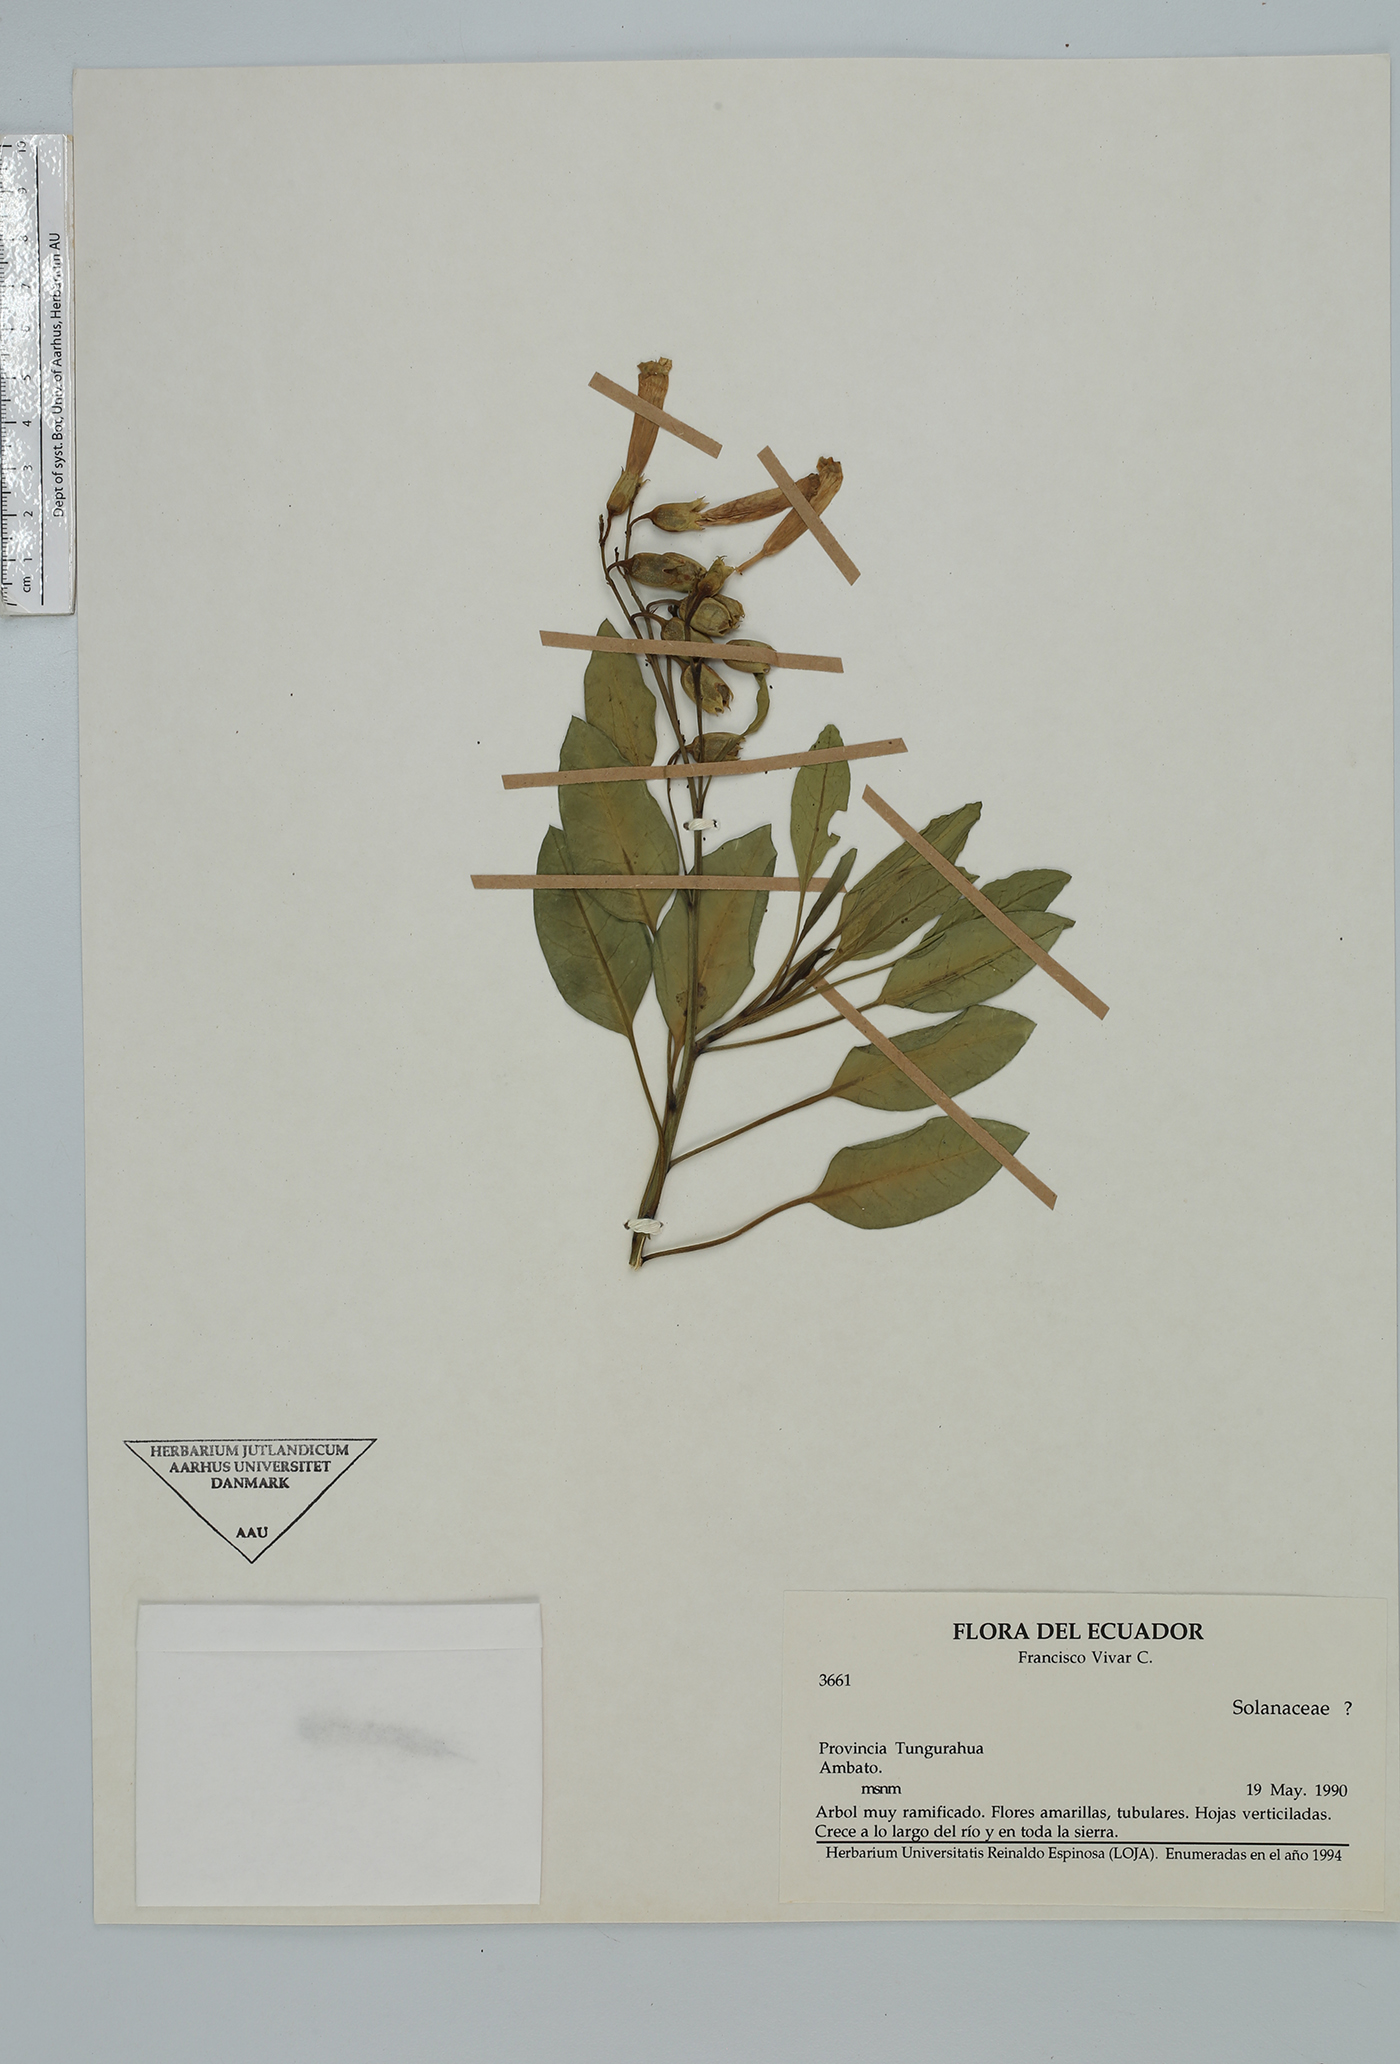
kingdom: Plantae
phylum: Tracheophyta
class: Magnoliopsida
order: Solanales
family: Solanaceae
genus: Nicotiana
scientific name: Nicotiana
